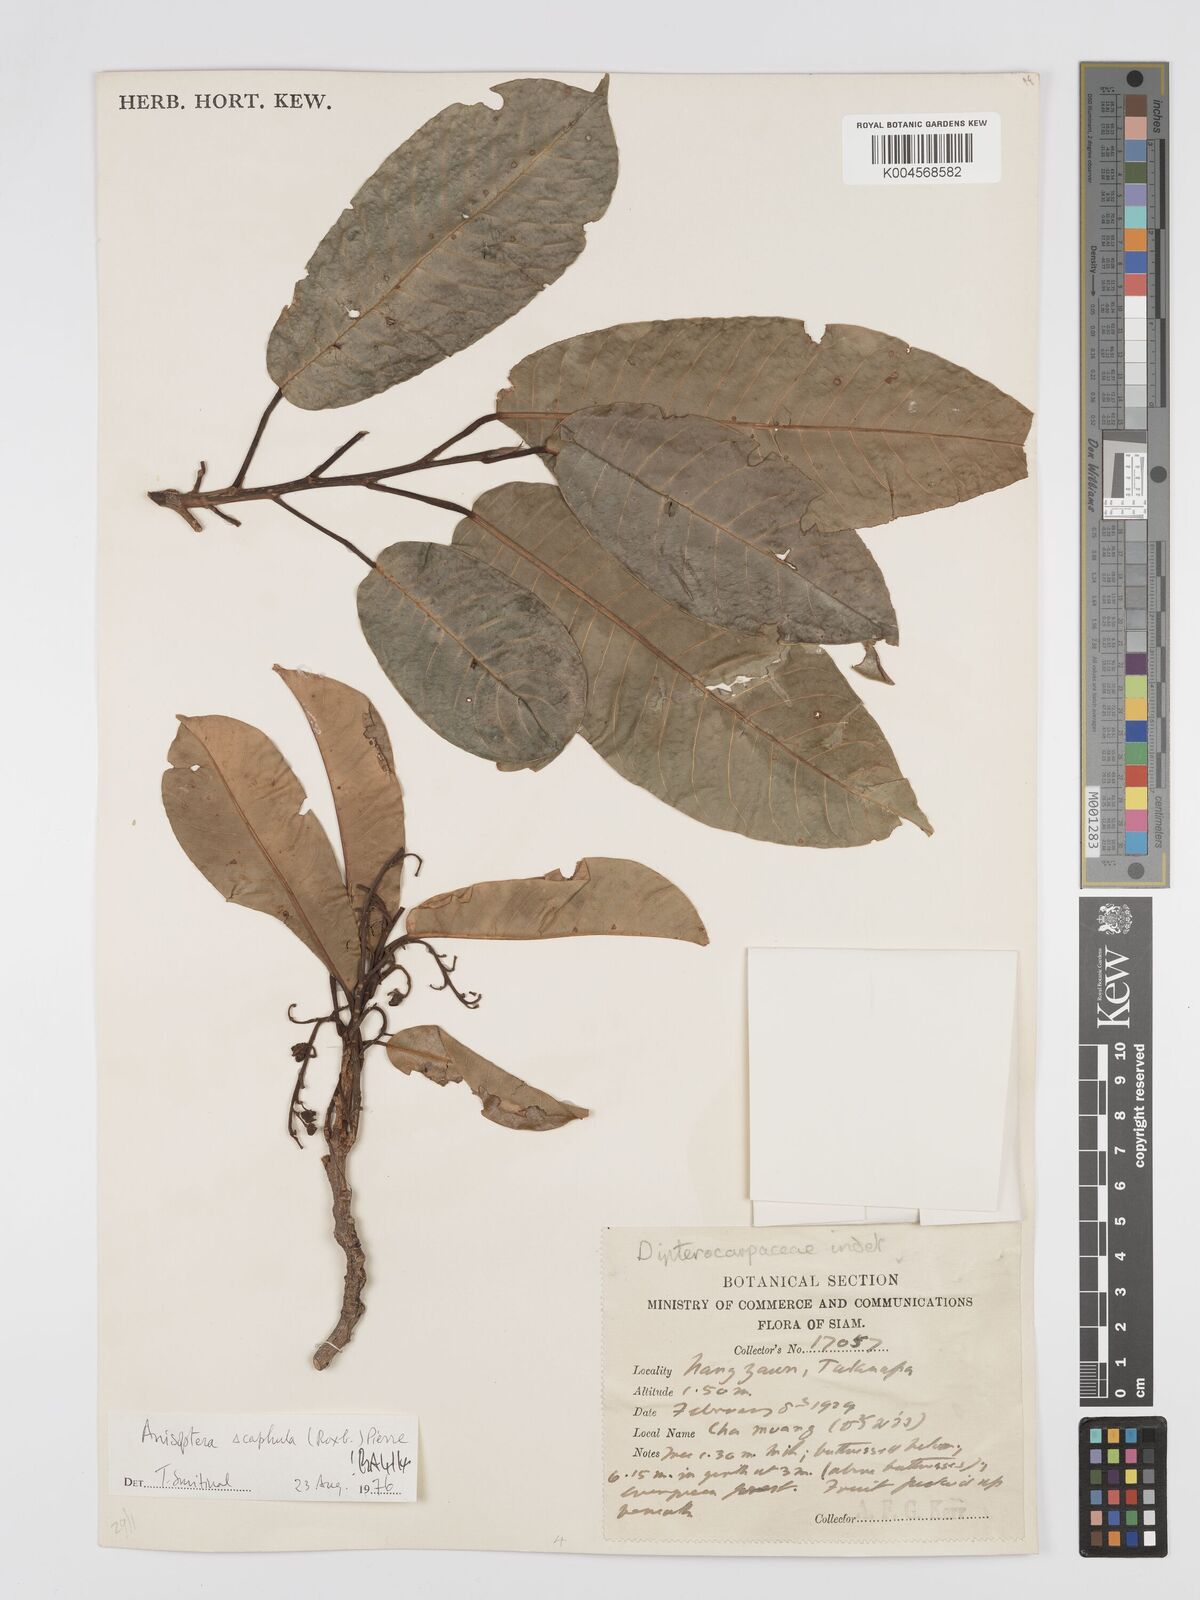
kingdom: Plantae
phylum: Tracheophyta
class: Magnoliopsida
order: Malvales
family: Dipterocarpaceae
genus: Anisoptera
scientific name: Anisoptera scaphula
